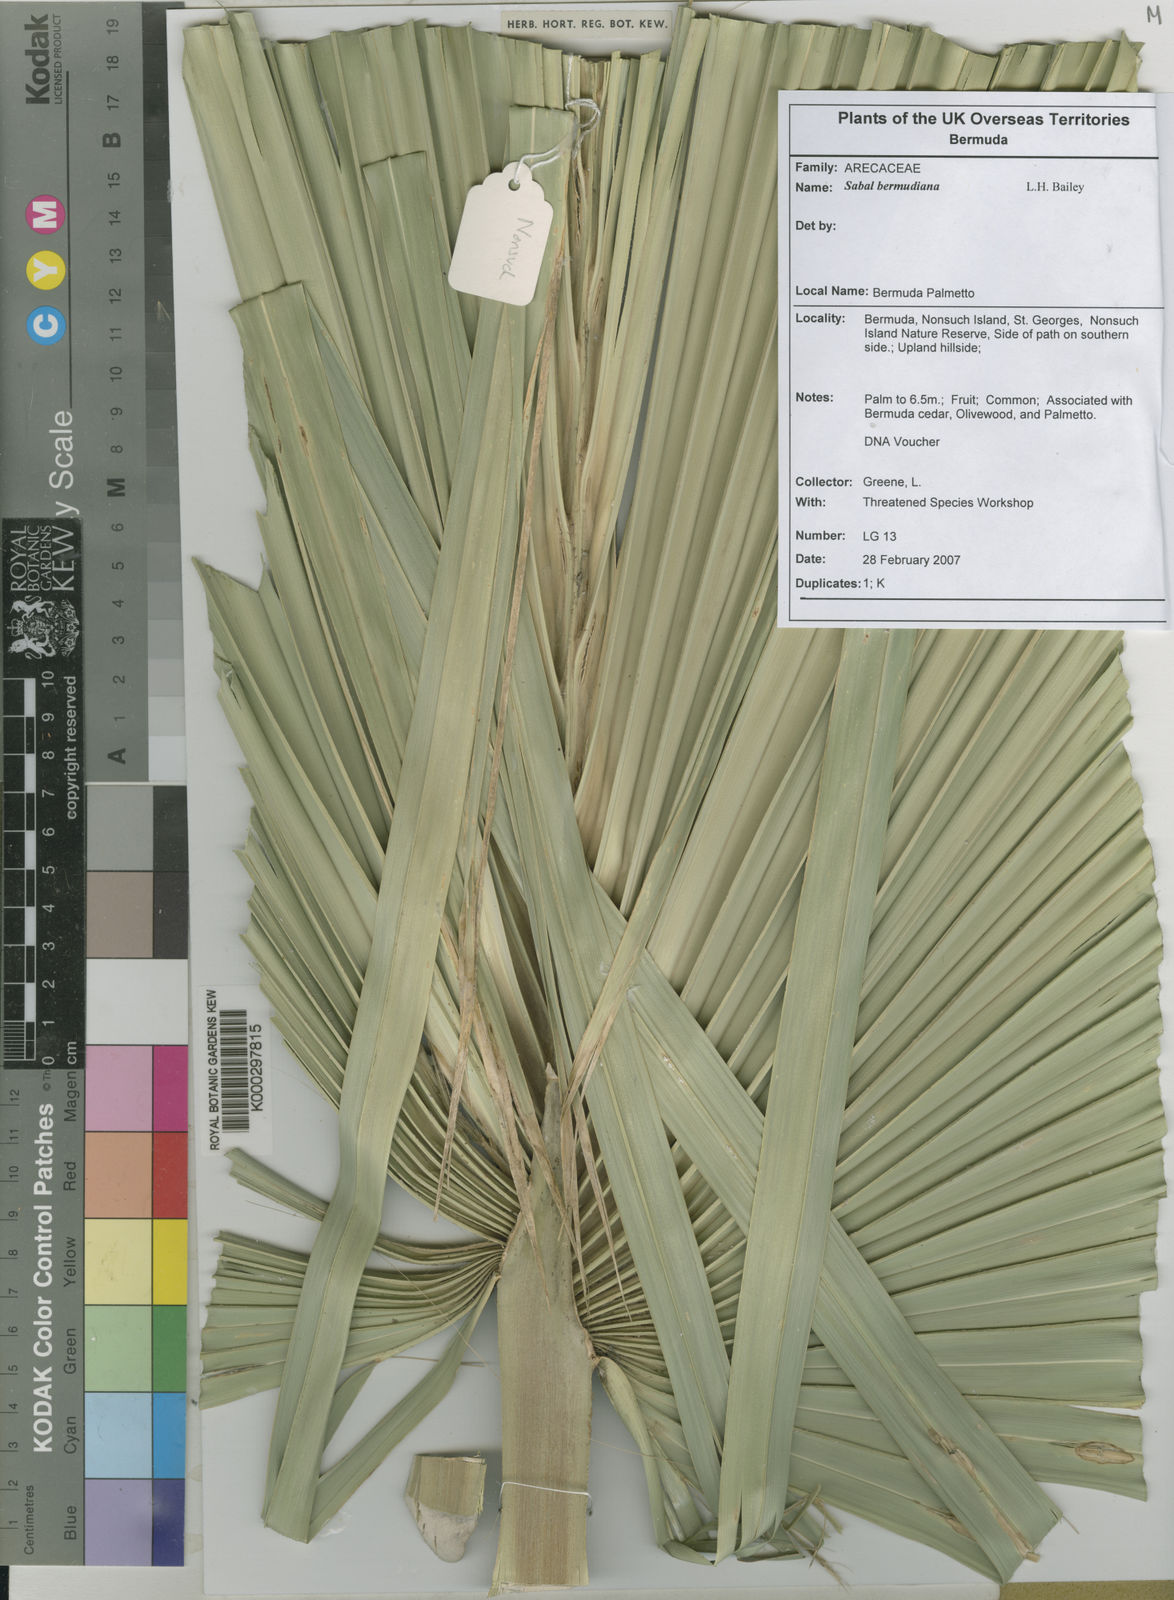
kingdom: Plantae
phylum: Tracheophyta
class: Liliopsida
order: Arecales
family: Arecaceae
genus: Sabal
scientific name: Sabal bermudana
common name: Bermuda palm
